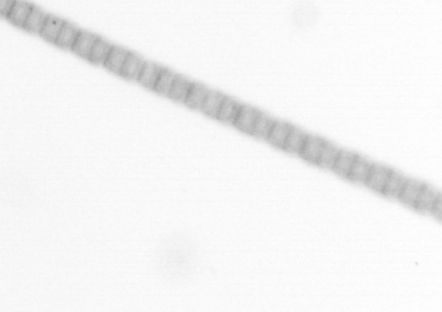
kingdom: Chromista
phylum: Ochrophyta
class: Bacillariophyceae
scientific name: Bacillariophyceae
